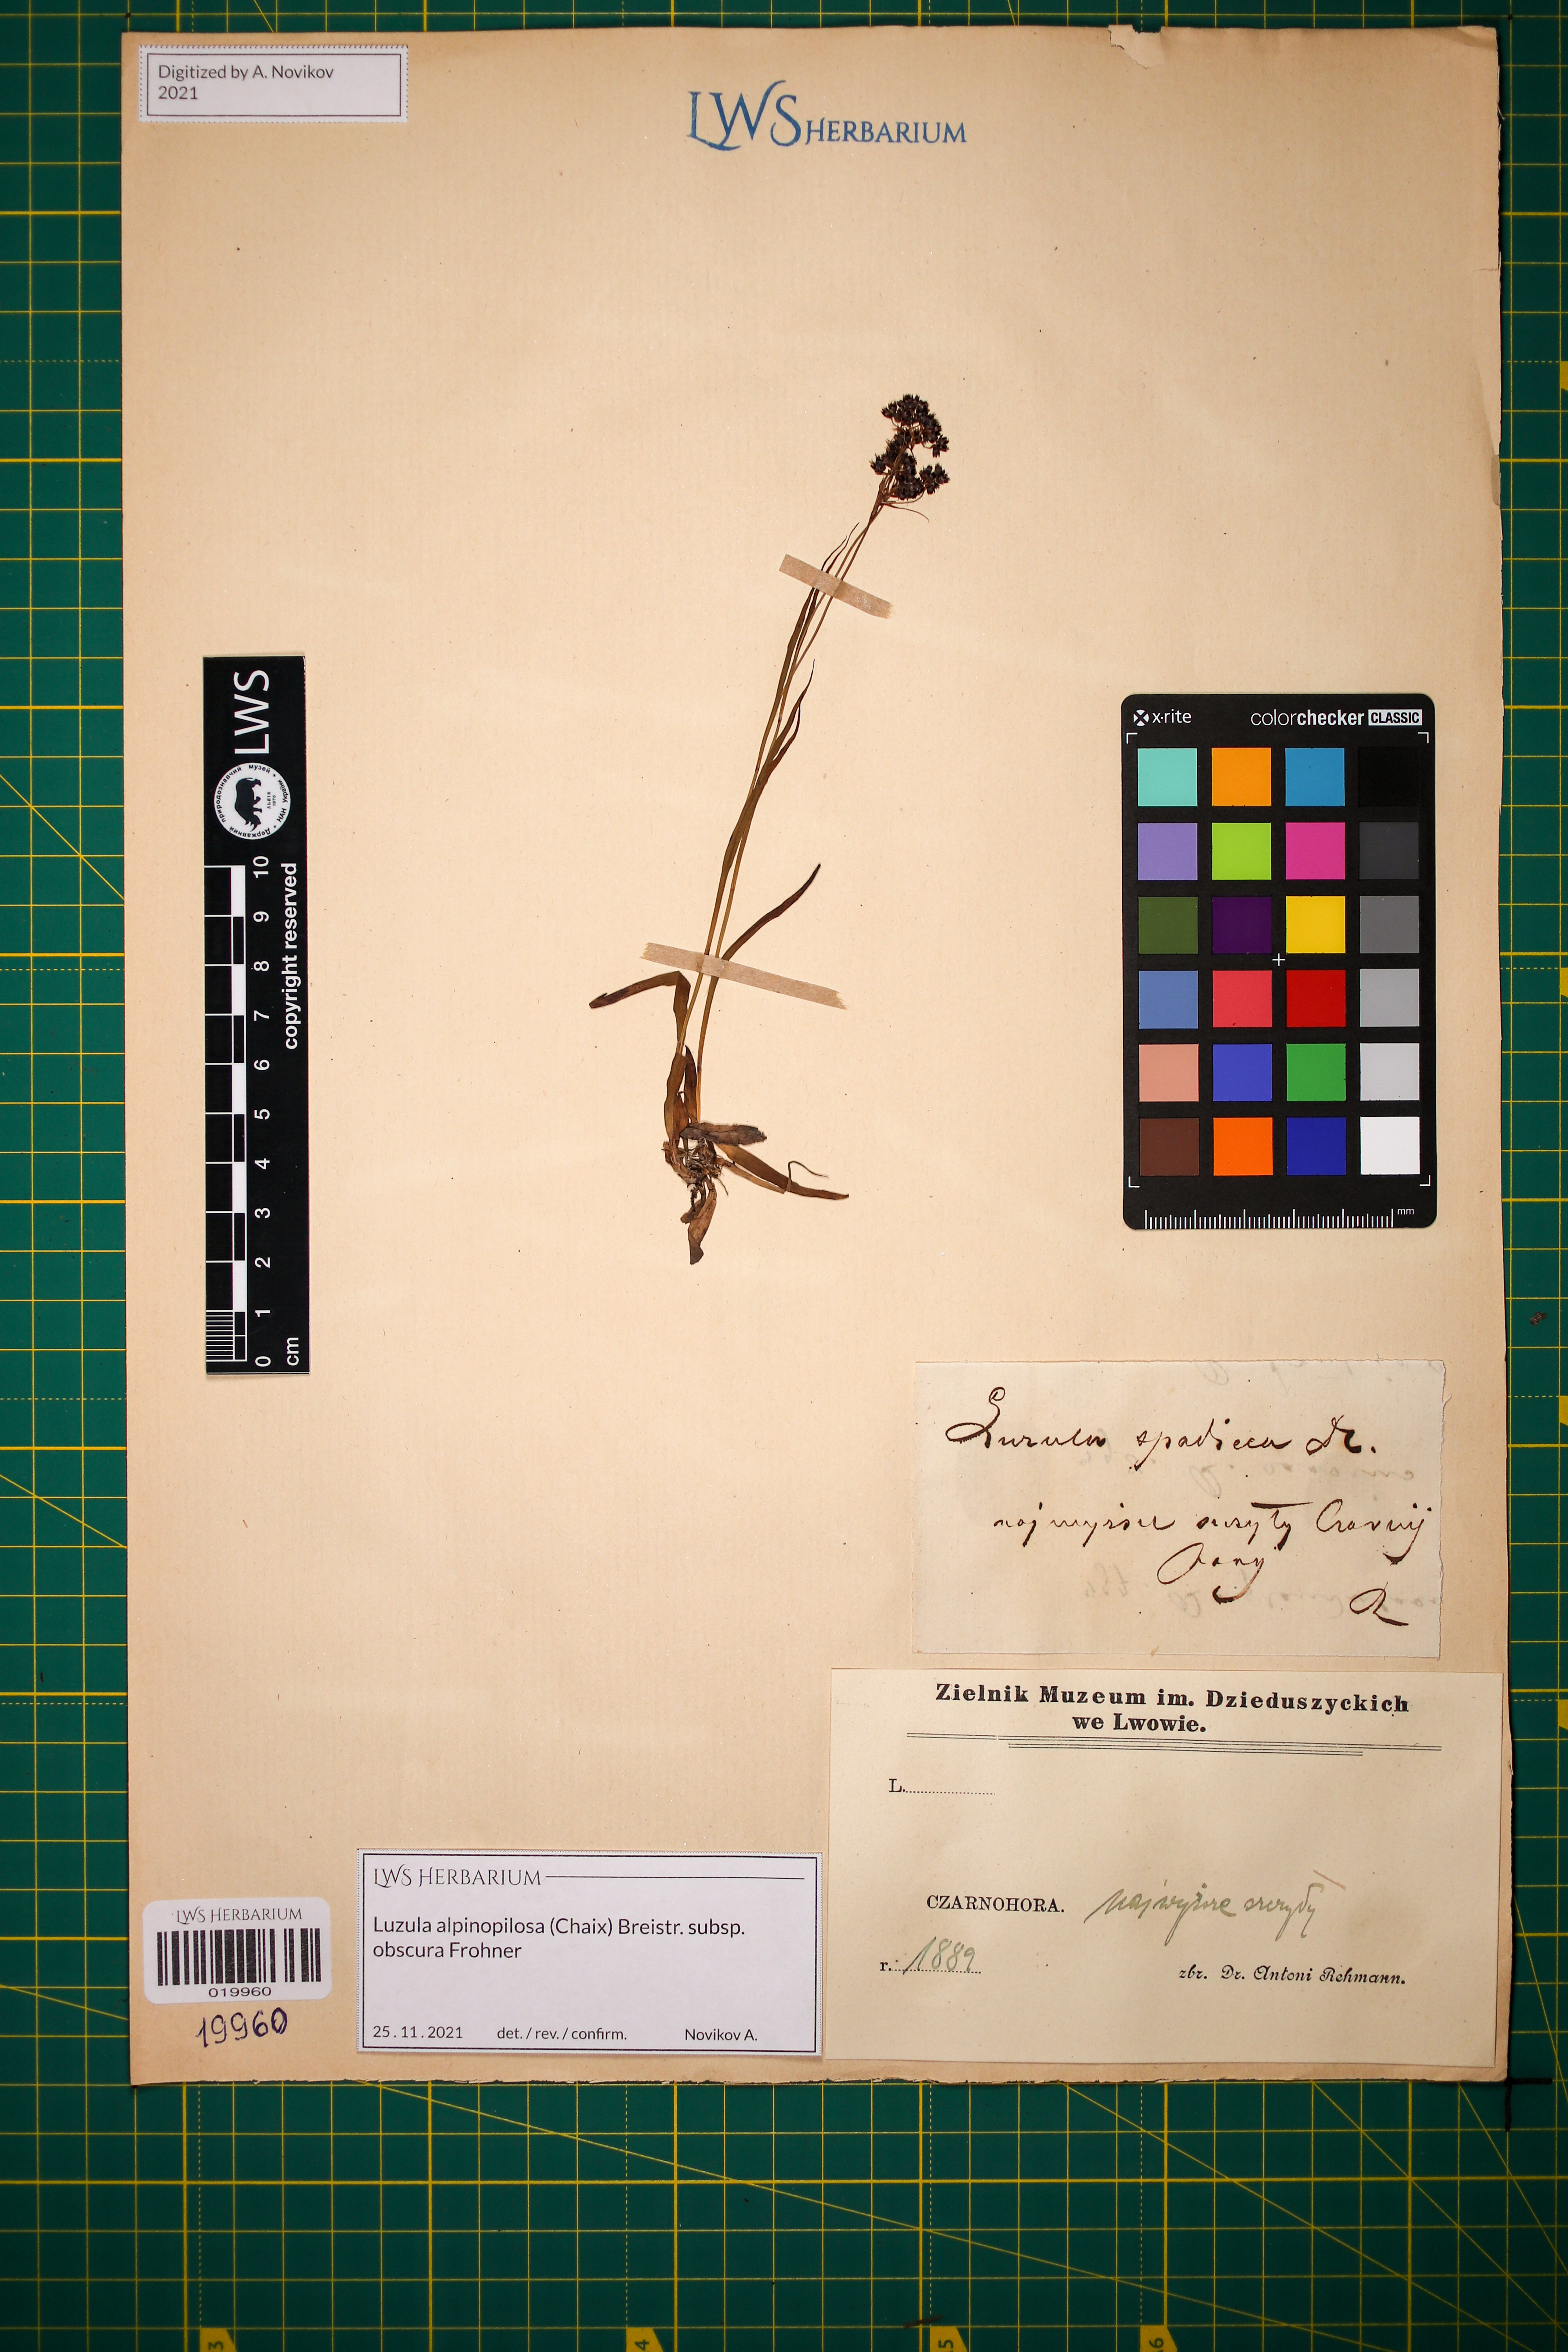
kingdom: Plantae
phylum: Tracheophyta
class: Liliopsida
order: Poales
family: Juncaceae
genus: Luzula
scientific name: Luzula alpinopilosa
